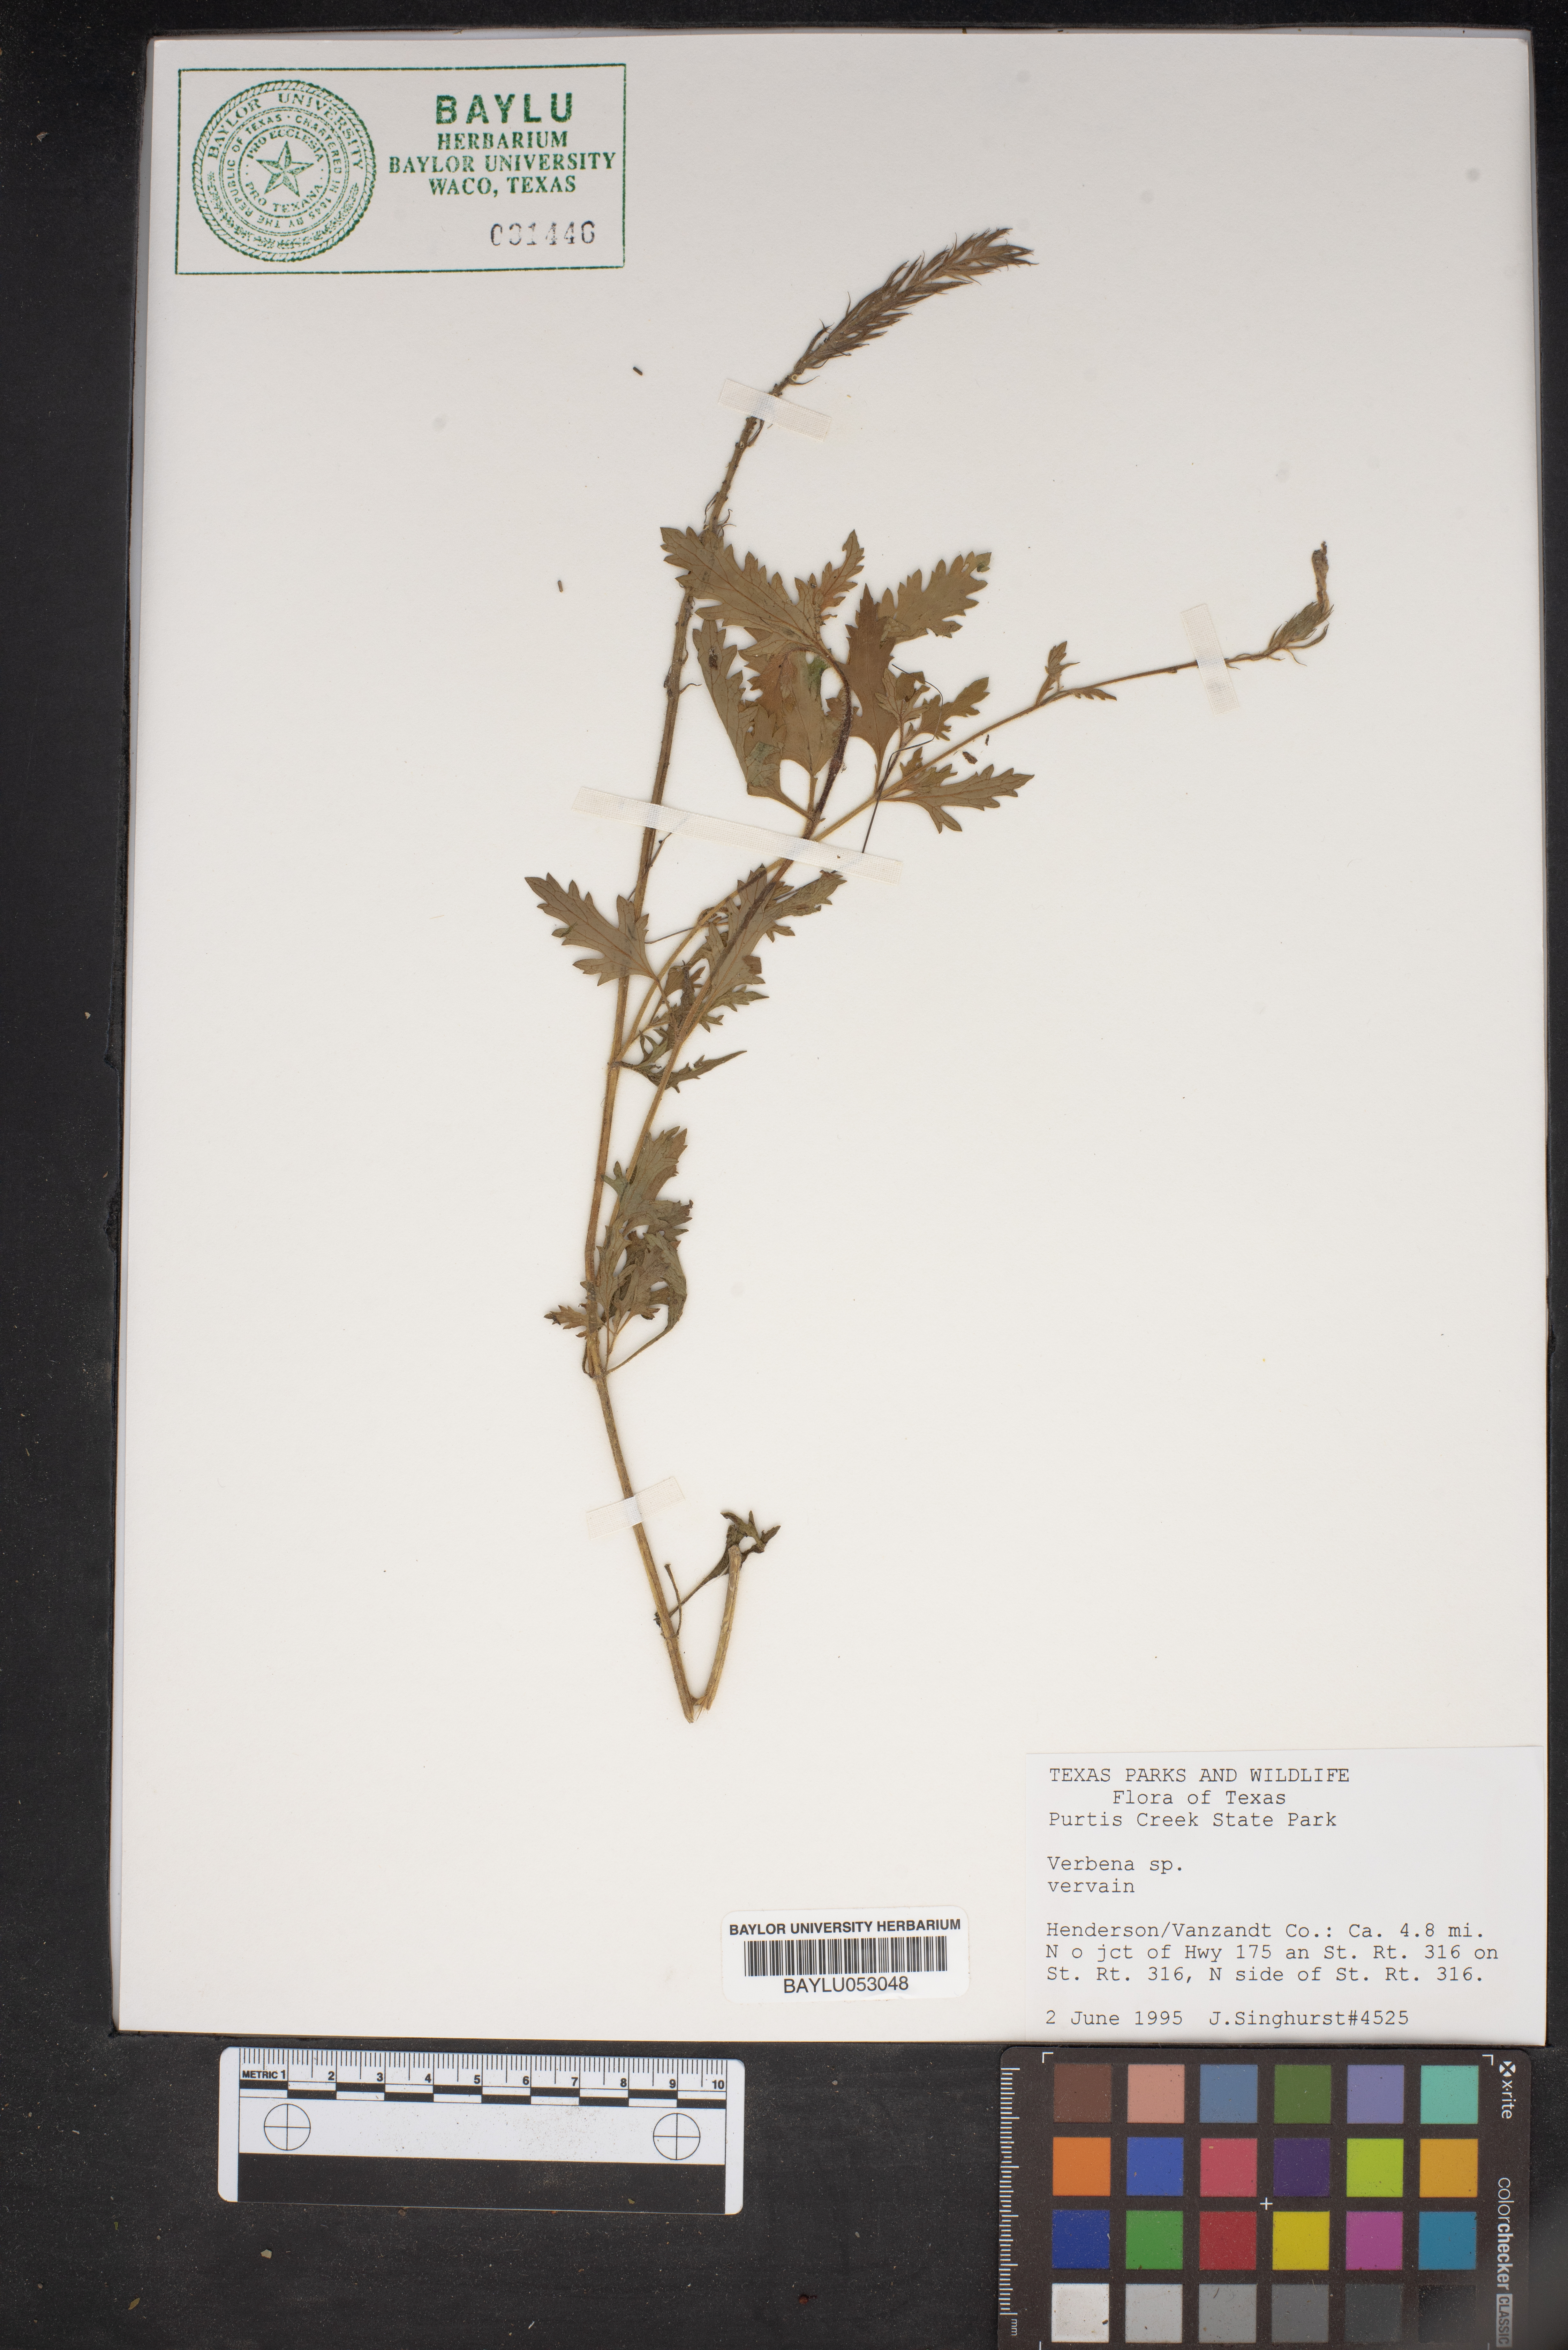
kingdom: Plantae
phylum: Tracheophyta
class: Magnoliopsida
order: Lamiales
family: Verbenaceae
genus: Verbena
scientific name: Verbena
